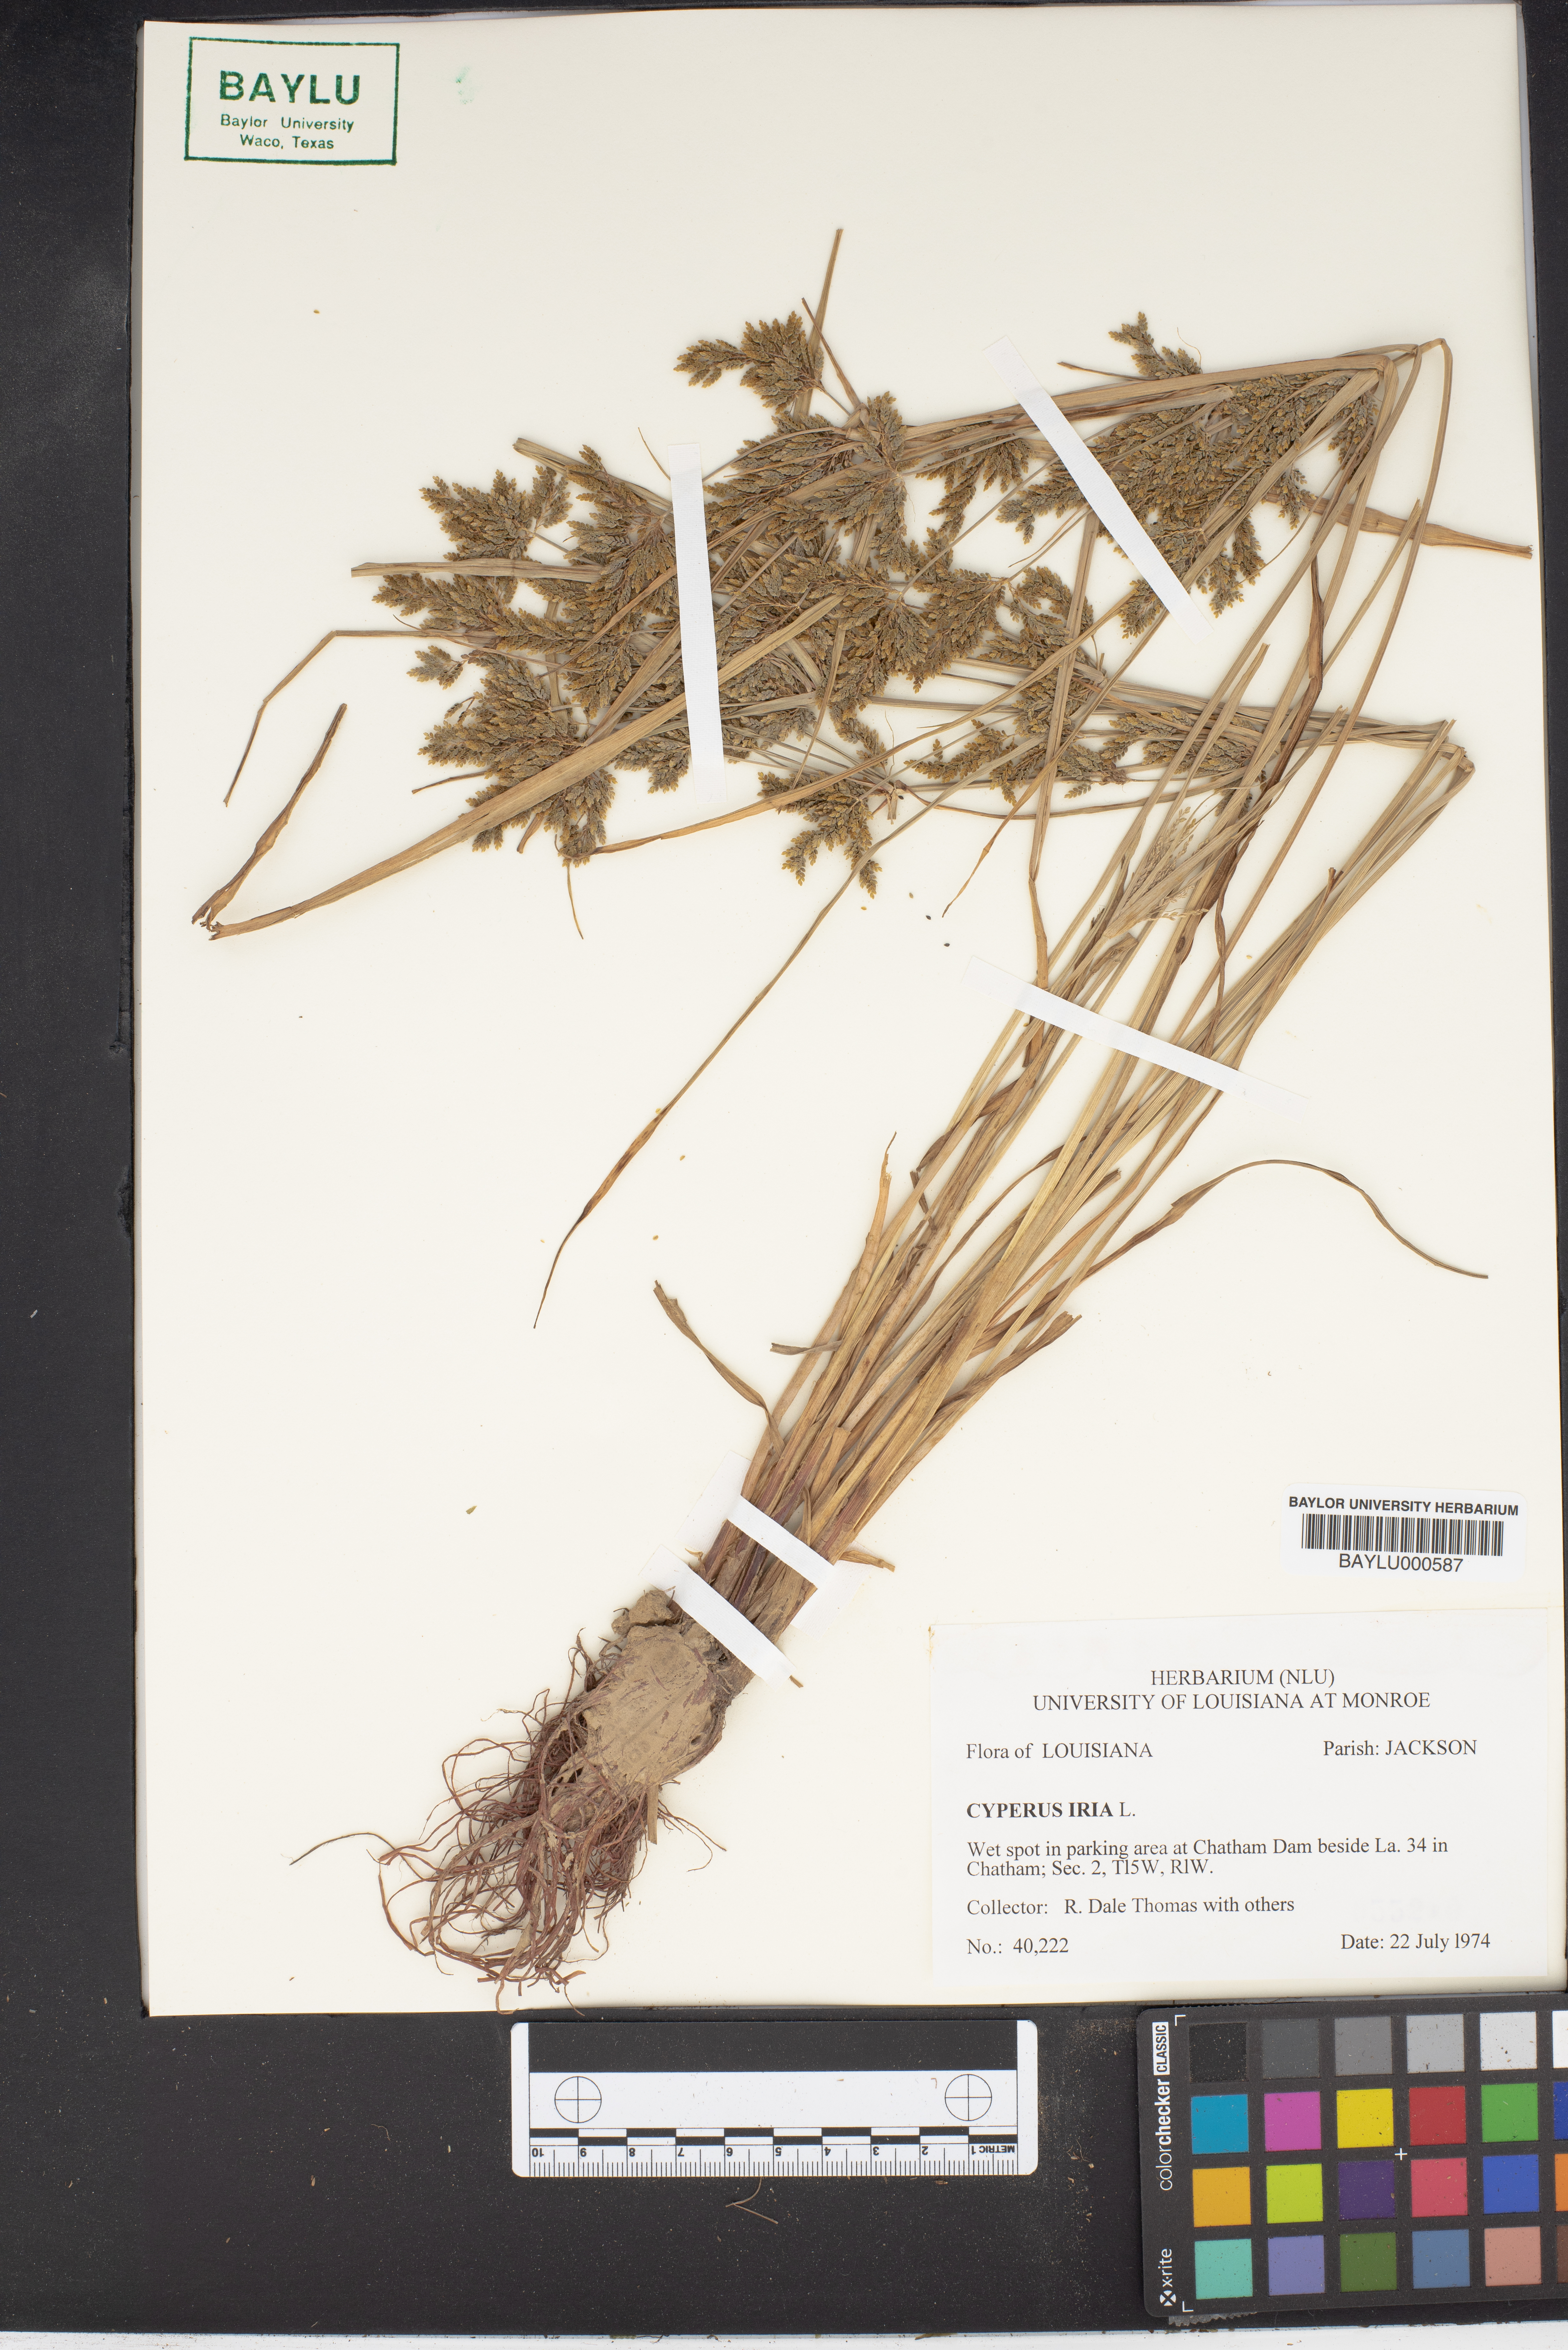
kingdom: Plantae
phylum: Tracheophyta
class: Liliopsida
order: Poales
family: Cyperaceae
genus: Cyperus
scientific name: Cyperus iria
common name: Ricefield flatsedge
